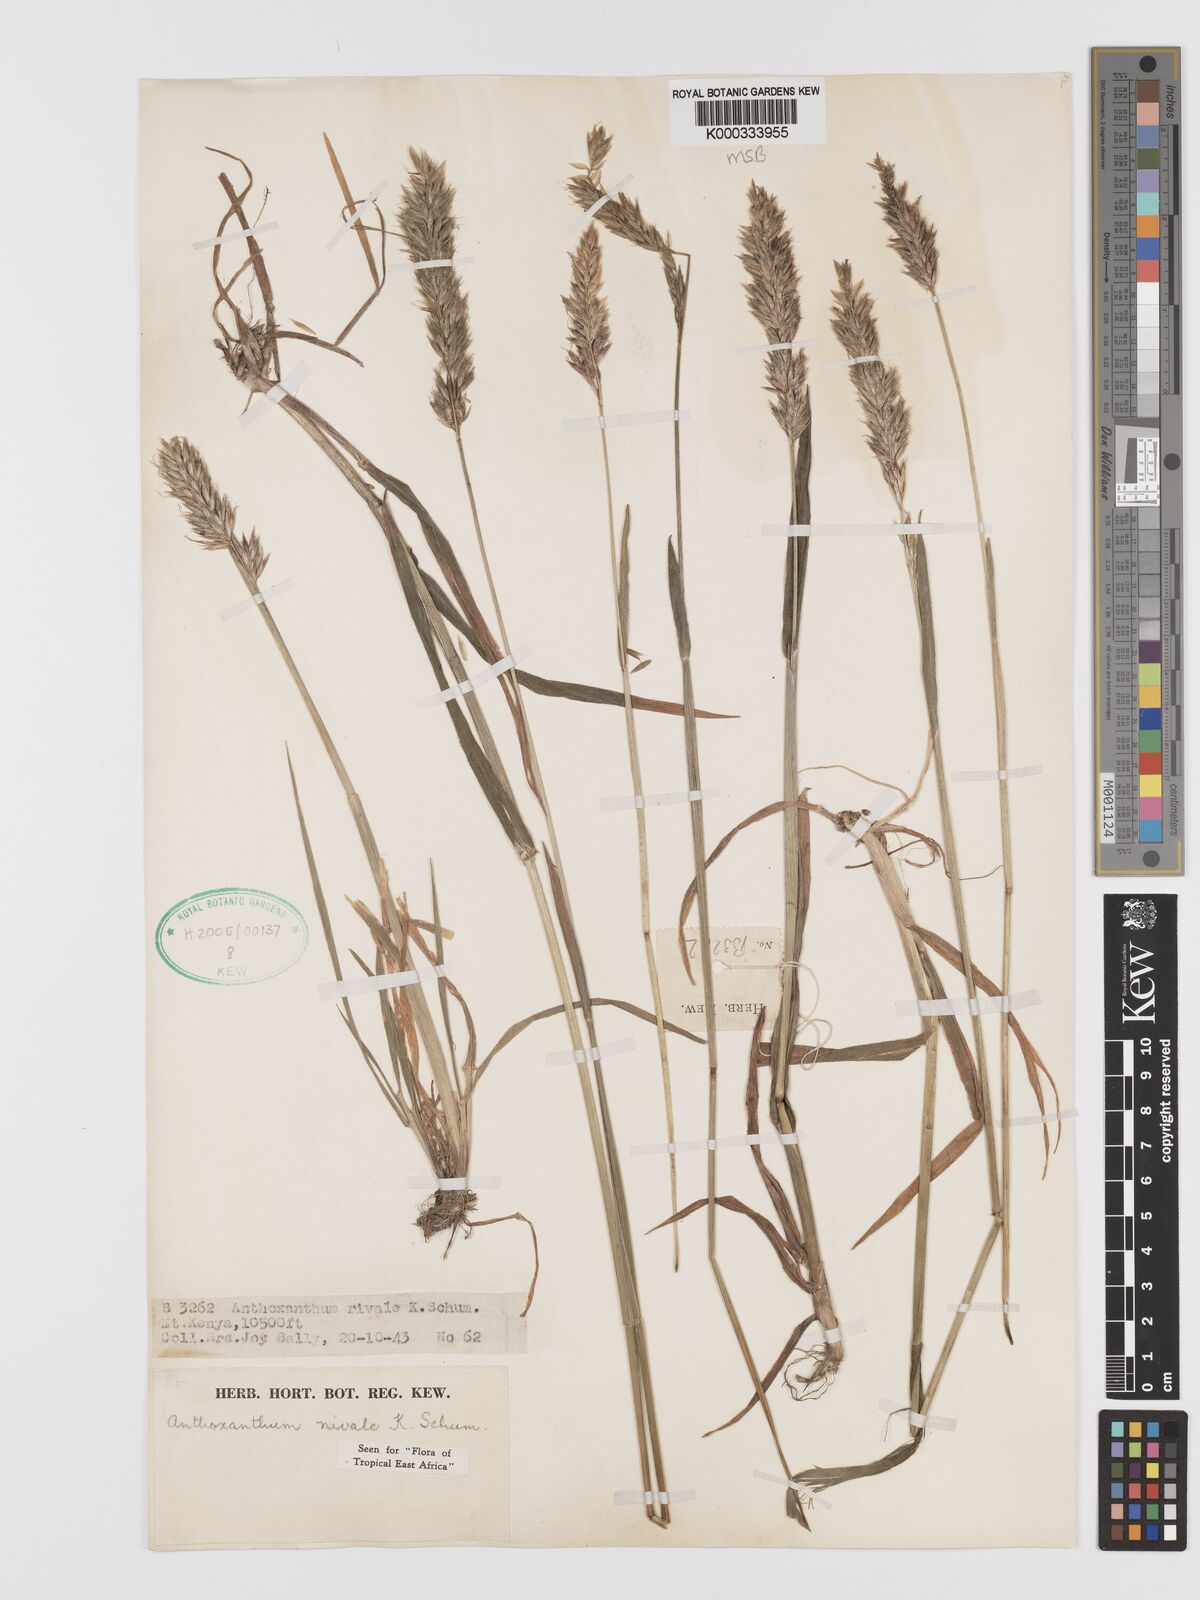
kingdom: Plantae
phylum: Tracheophyta
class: Liliopsida
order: Poales
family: Poaceae
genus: Anthoxanthum
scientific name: Anthoxanthum
